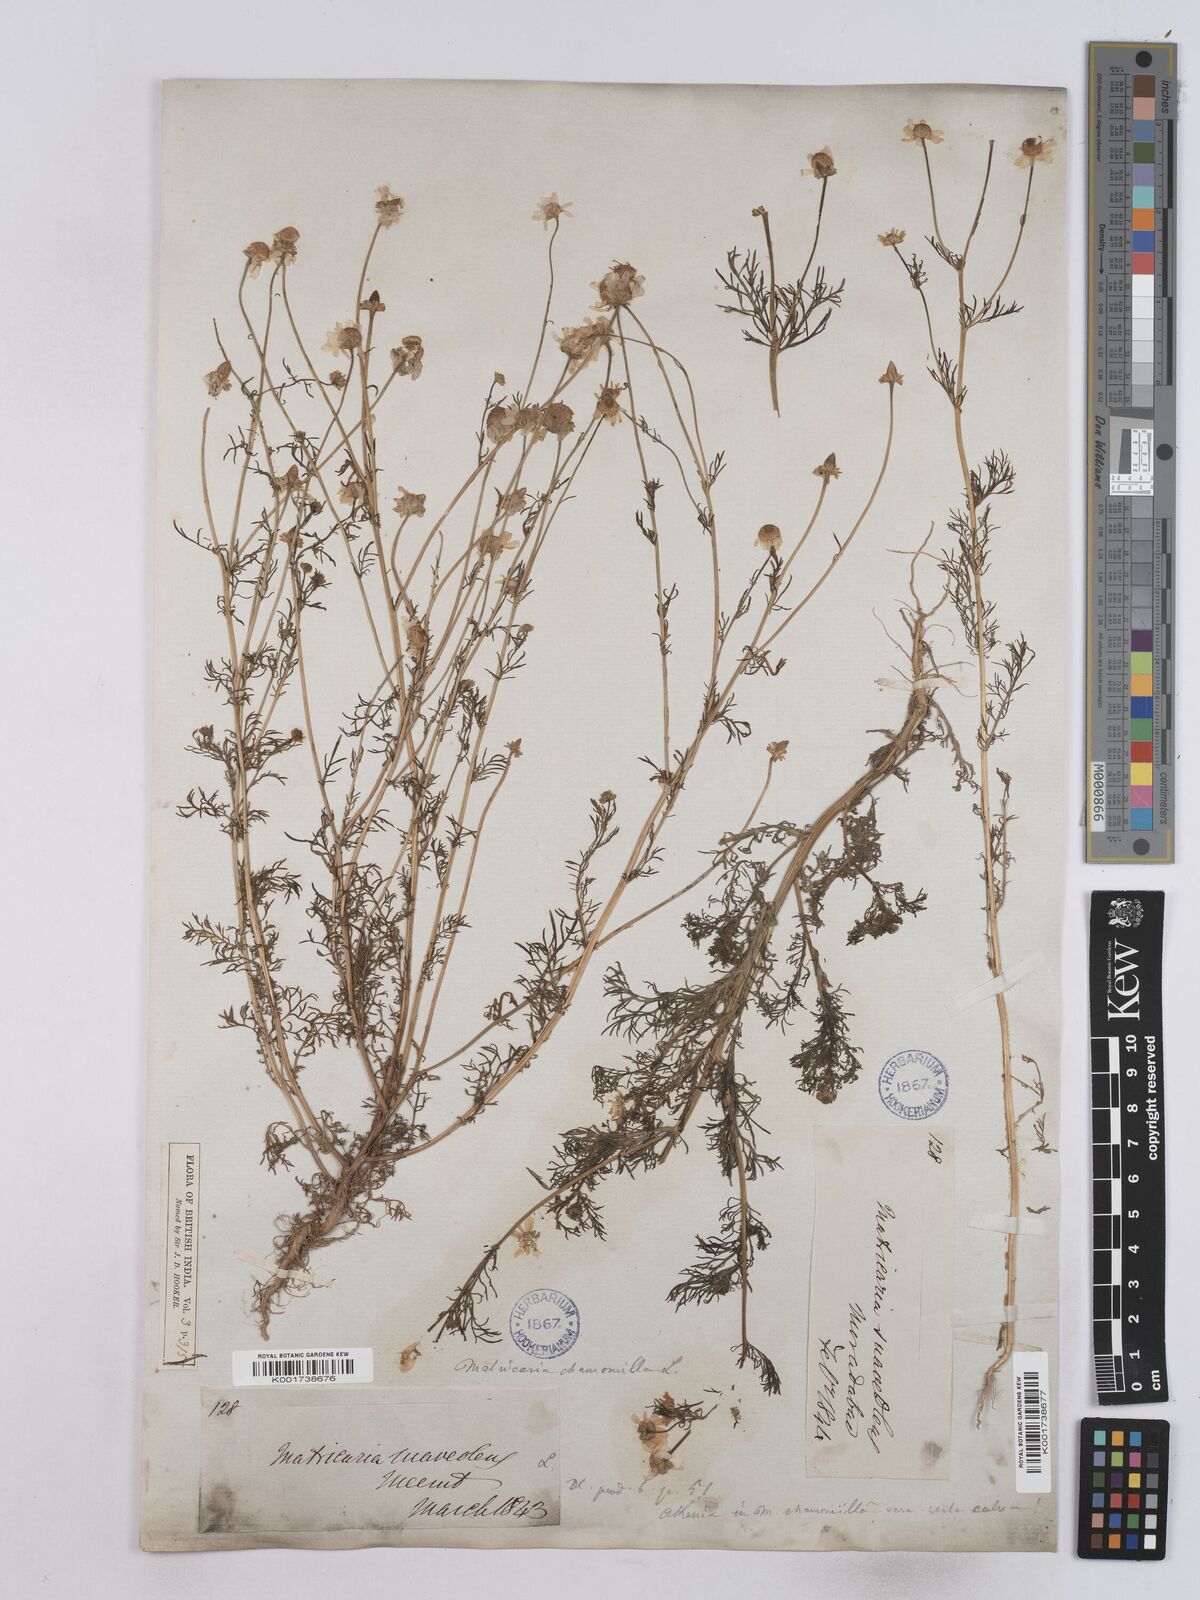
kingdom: Plantae
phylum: Tracheophyta
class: Magnoliopsida
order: Asterales
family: Asteraceae
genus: Matricaria
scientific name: Matricaria chamomilla
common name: Scented mayweed
